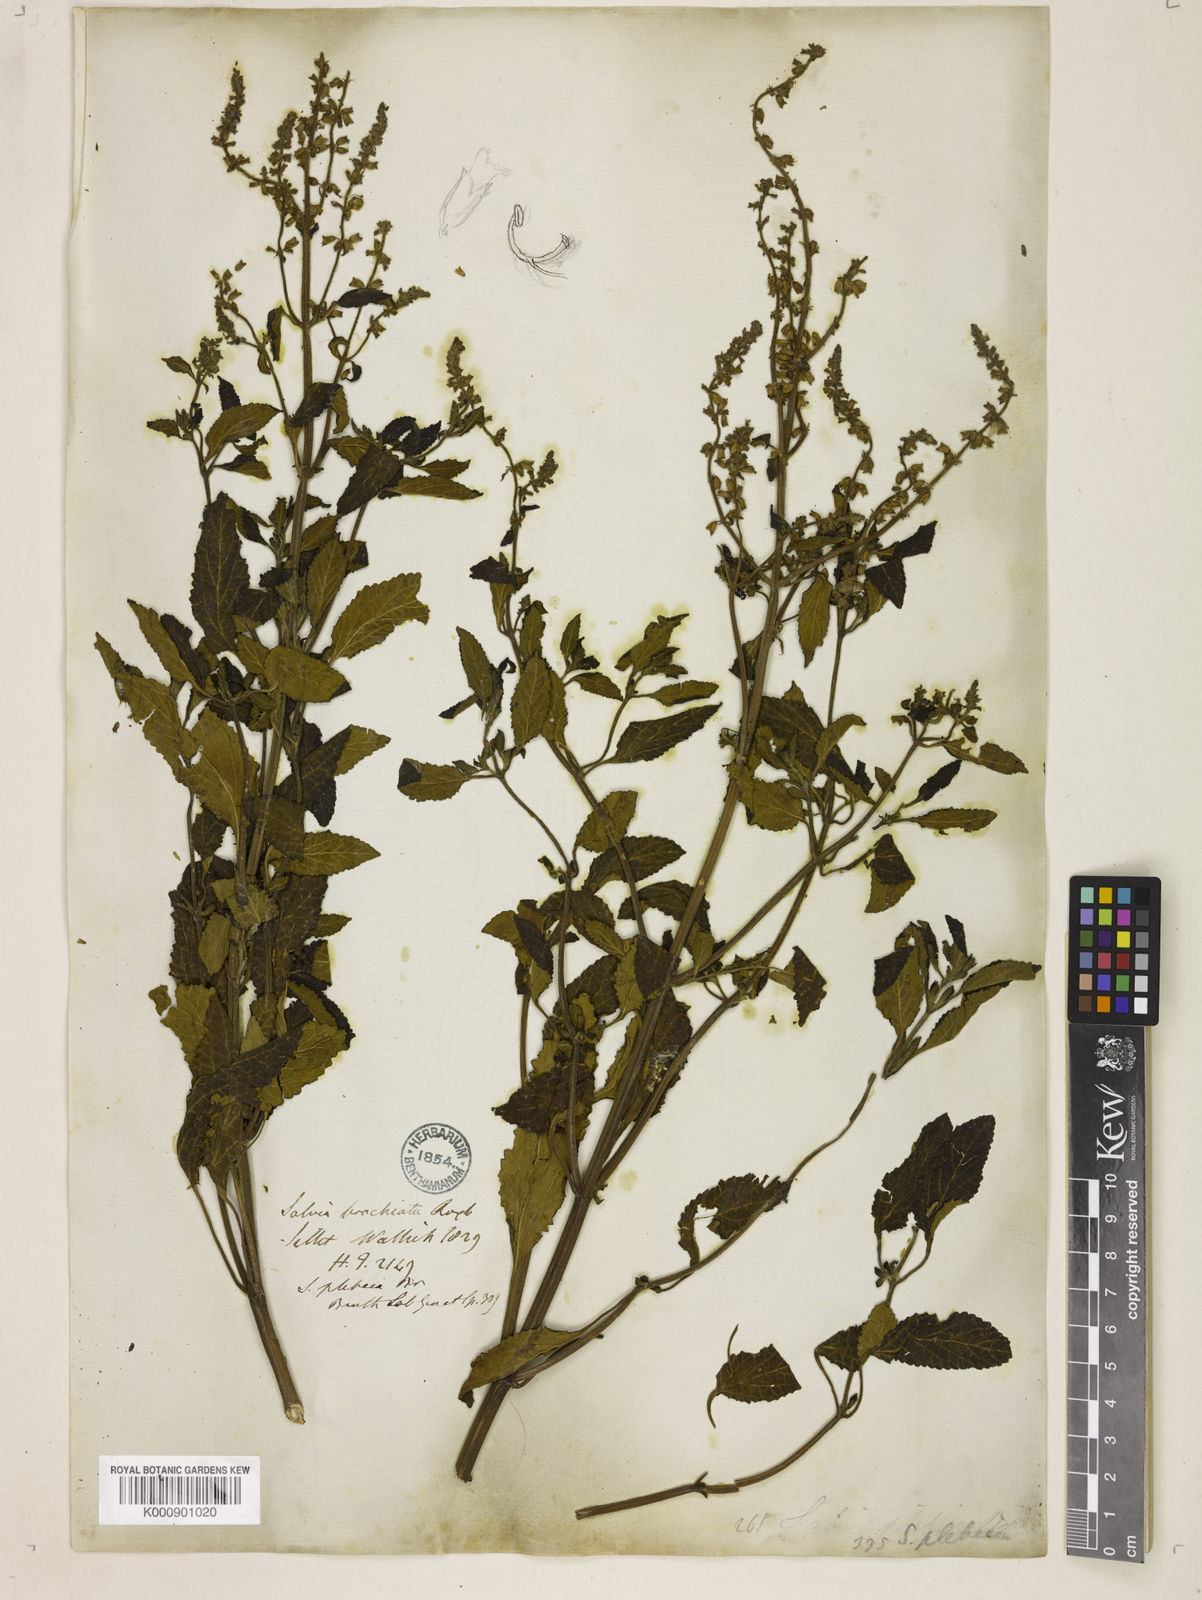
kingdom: Plantae
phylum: Tracheophyta
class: Magnoliopsida
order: Lamiales
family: Lamiaceae
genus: Salvia
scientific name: Salvia plebeia
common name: Australian sage
